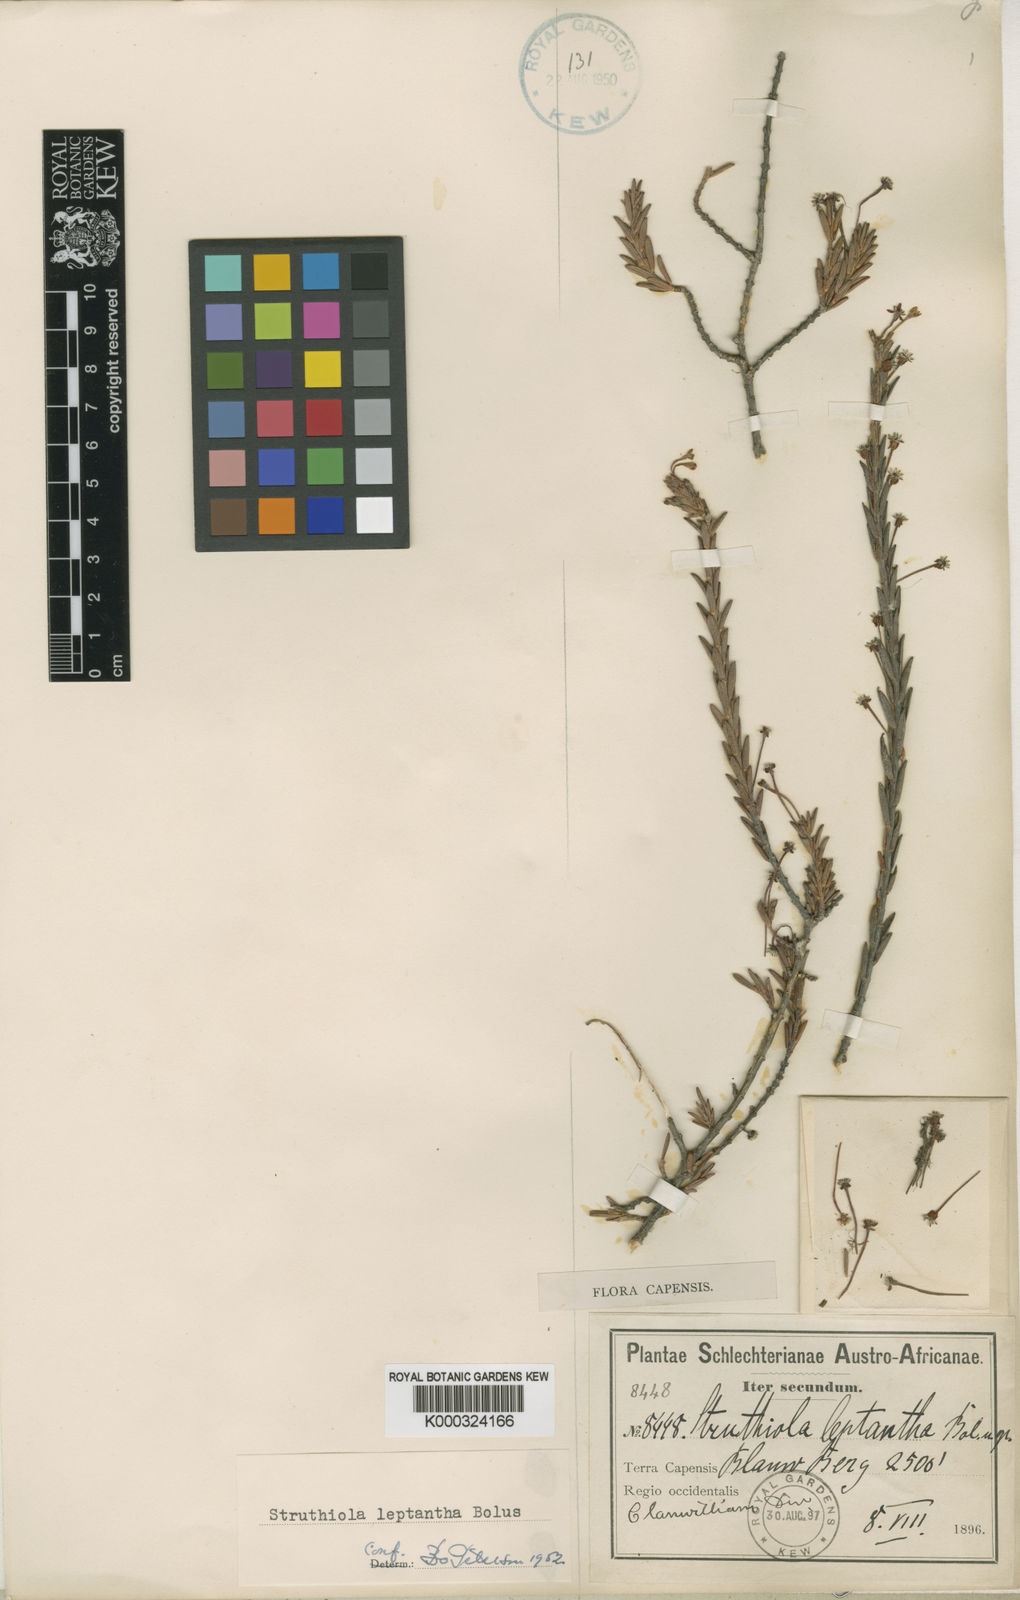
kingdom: Plantae
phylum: Tracheophyta
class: Magnoliopsida
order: Malvales
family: Thymelaeaceae
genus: Struthiola
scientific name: Struthiola leptantha
